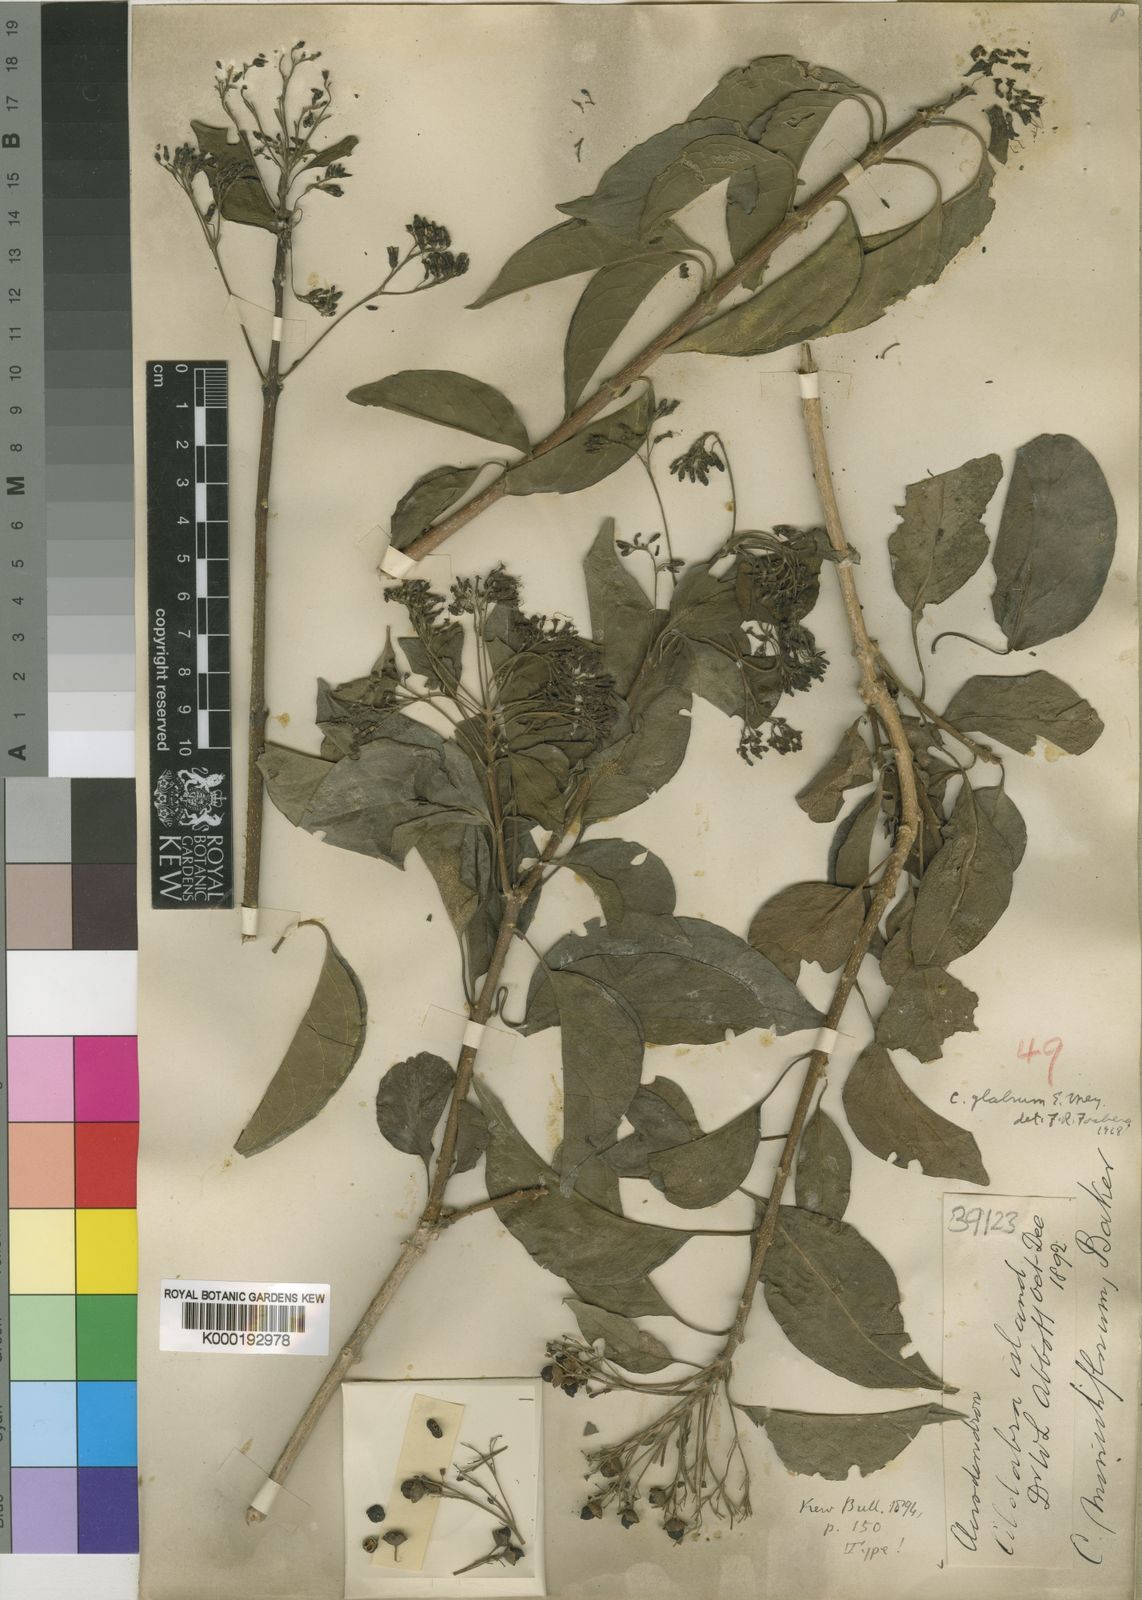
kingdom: Plantae
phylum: Tracheophyta
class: Magnoliopsida
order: Lamiales
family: Lamiaceae
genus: Volkameria
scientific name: Volkameria glabra
